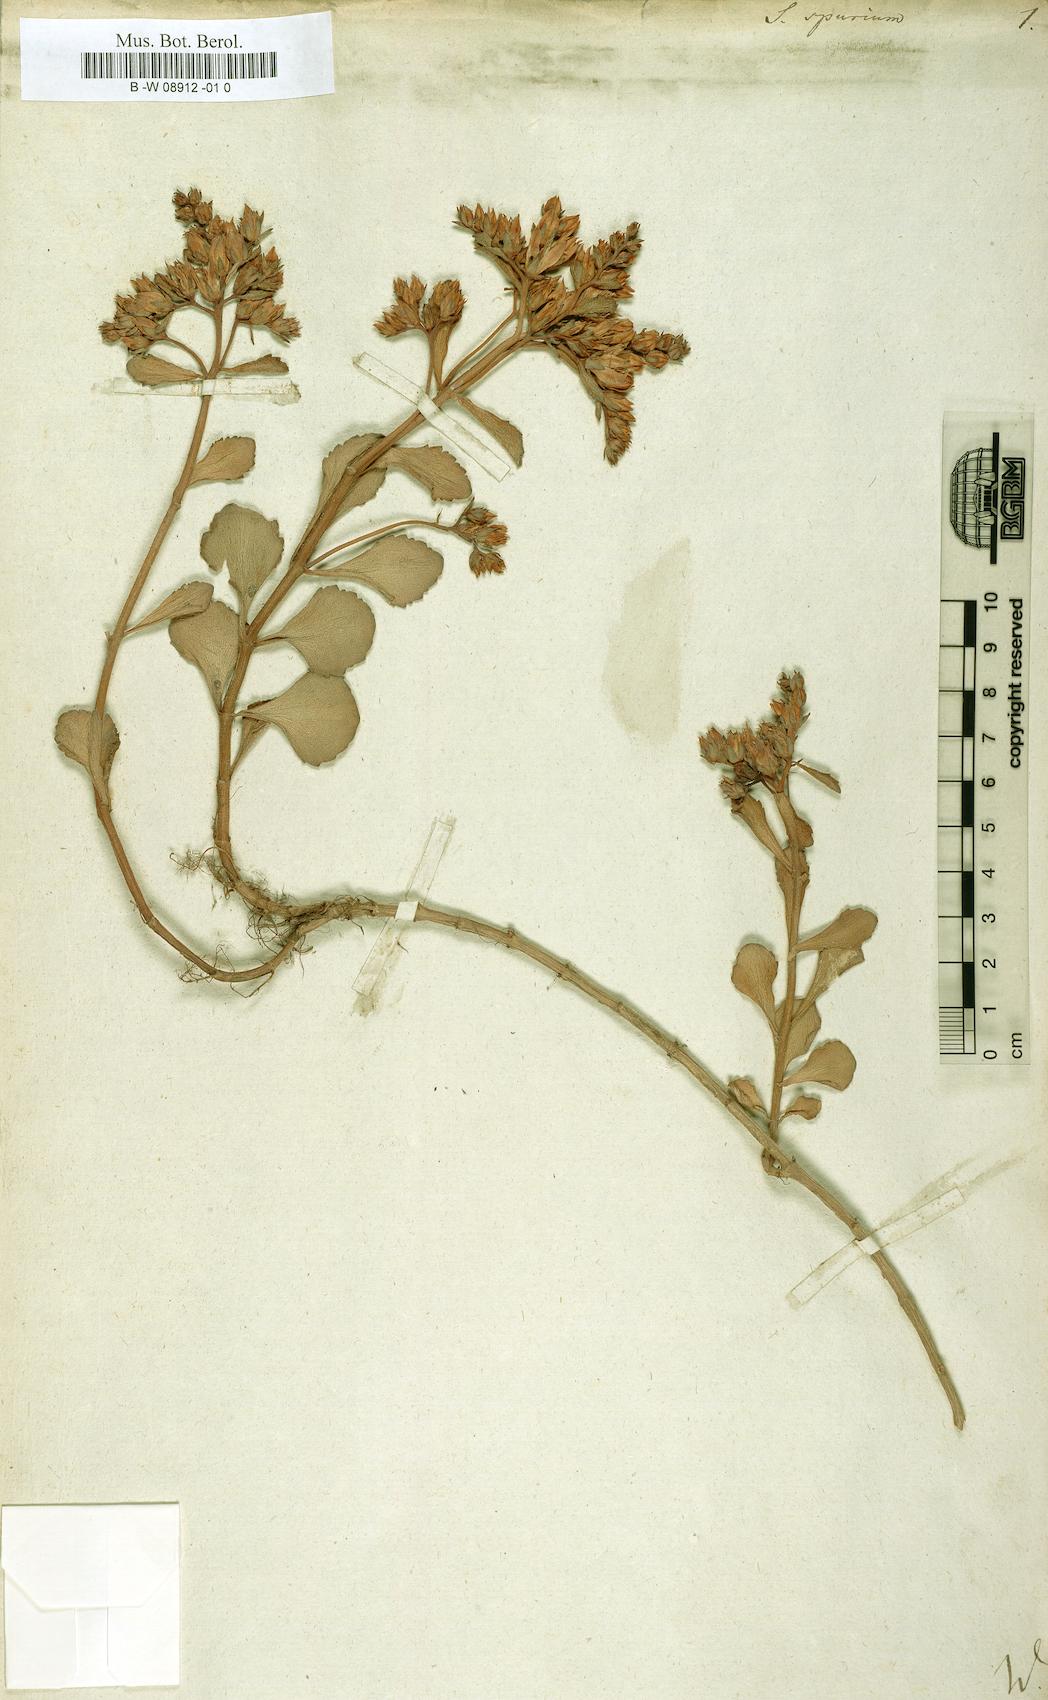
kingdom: Plantae
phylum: Tracheophyta
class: Magnoliopsida
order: Saxifragales
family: Crassulaceae
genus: Sedum
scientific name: Sedum spurium
